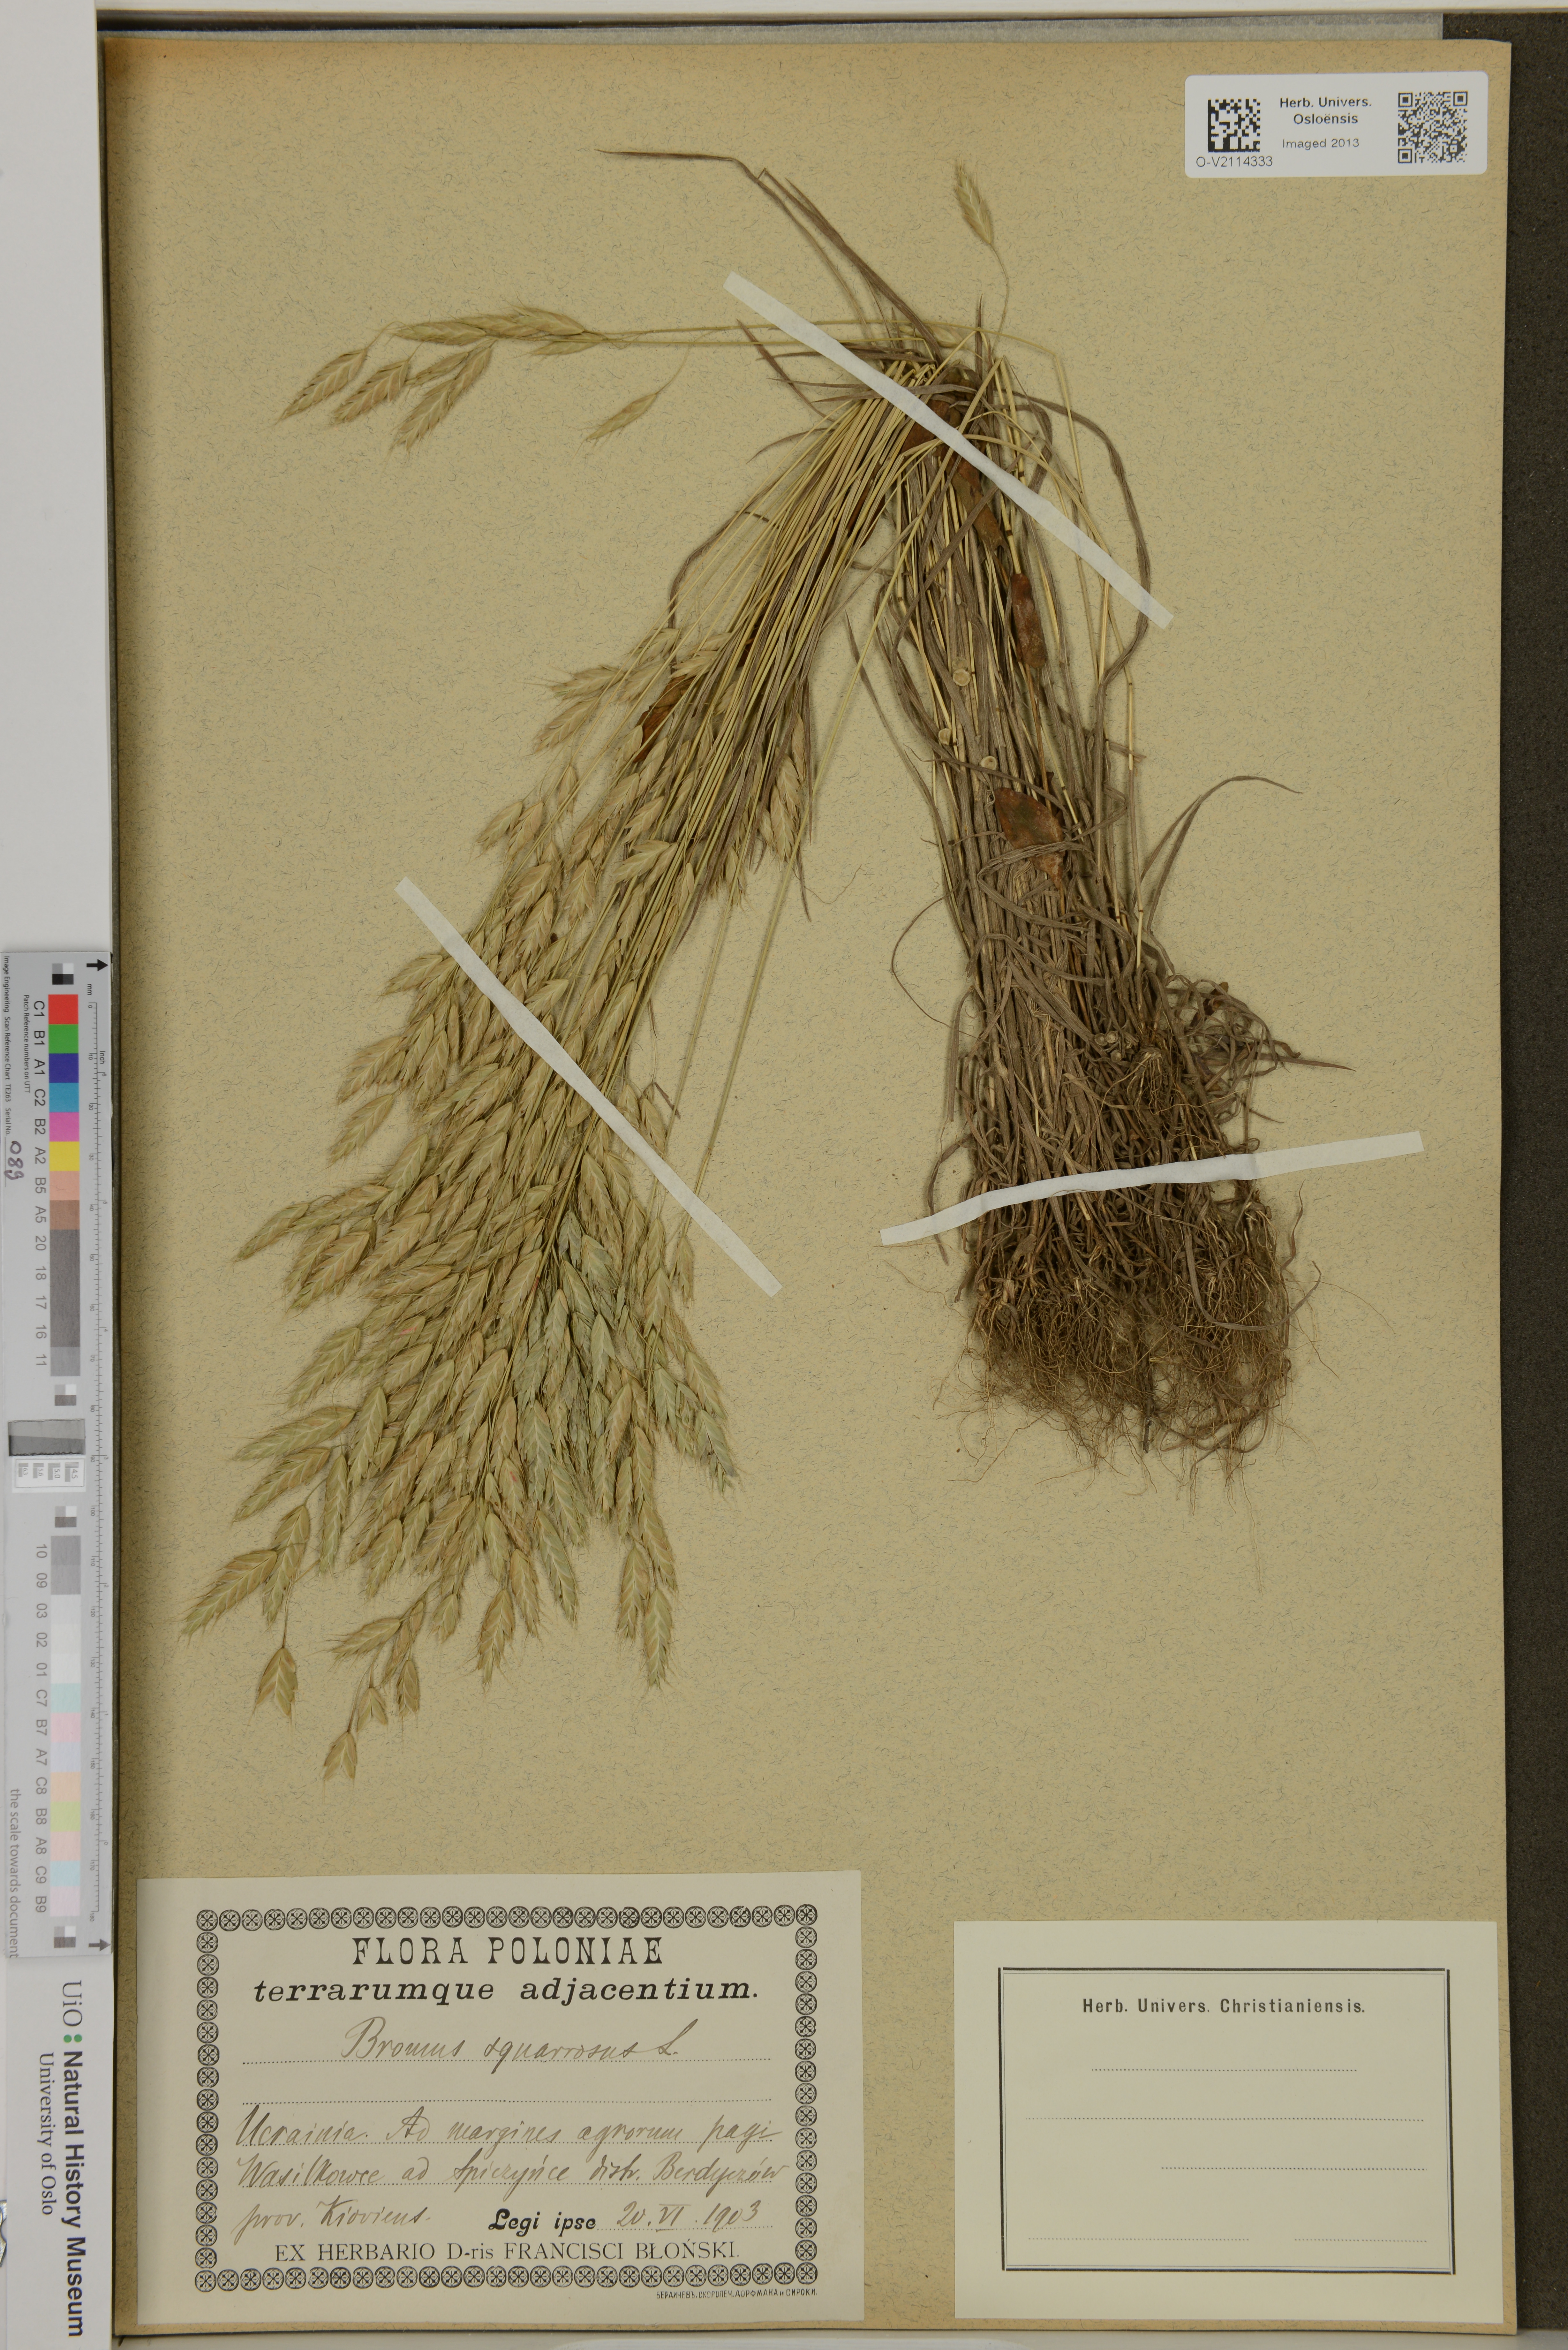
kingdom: Plantae
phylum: Tracheophyta
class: Liliopsida
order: Poales
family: Poaceae
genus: Bromus
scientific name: Bromus squarrosus
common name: Corn brome
